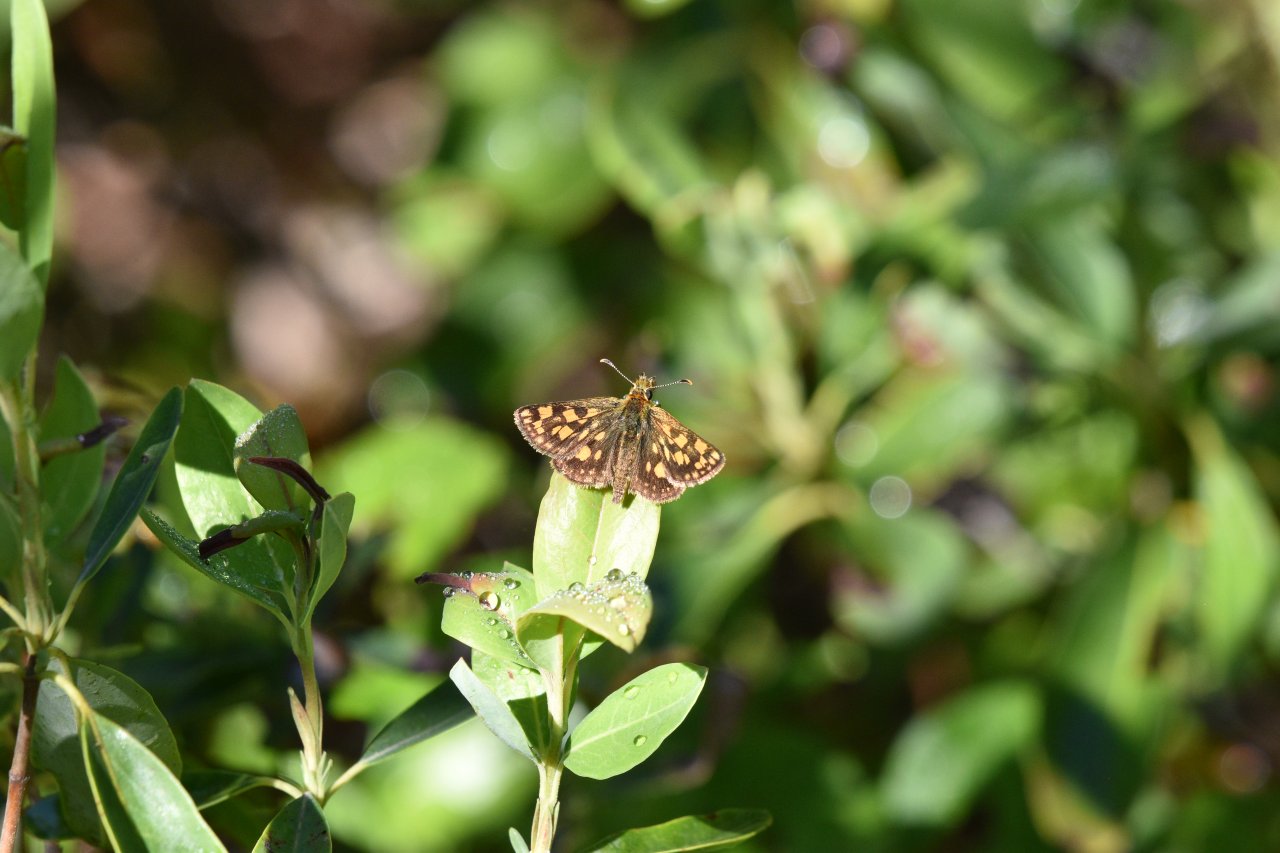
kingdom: Animalia
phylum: Arthropoda
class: Insecta
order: Lepidoptera
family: Hesperiidae
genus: Carterocephalus
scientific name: Carterocephalus palaemon
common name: Chequered Skipper
